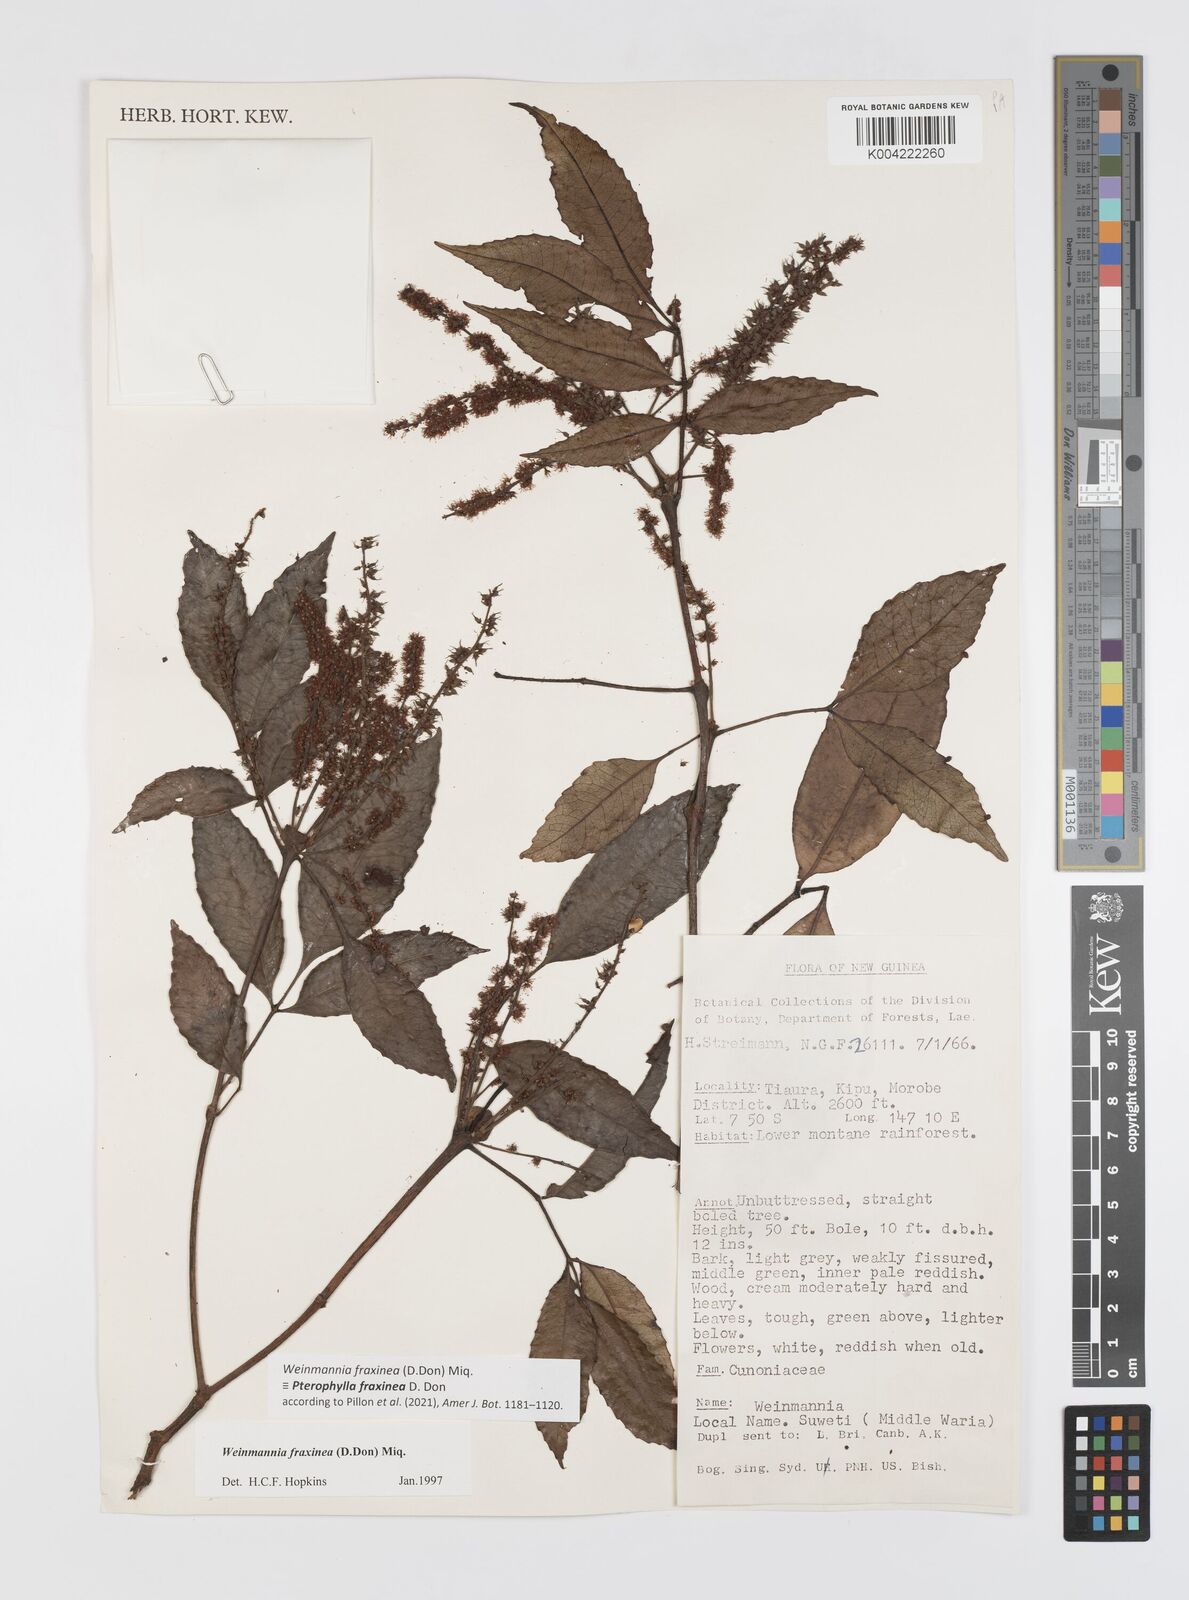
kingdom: Plantae
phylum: Tracheophyta
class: Magnoliopsida
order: Oxalidales
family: Cunoniaceae
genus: Pterophylla
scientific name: Pterophylla fraxinea
